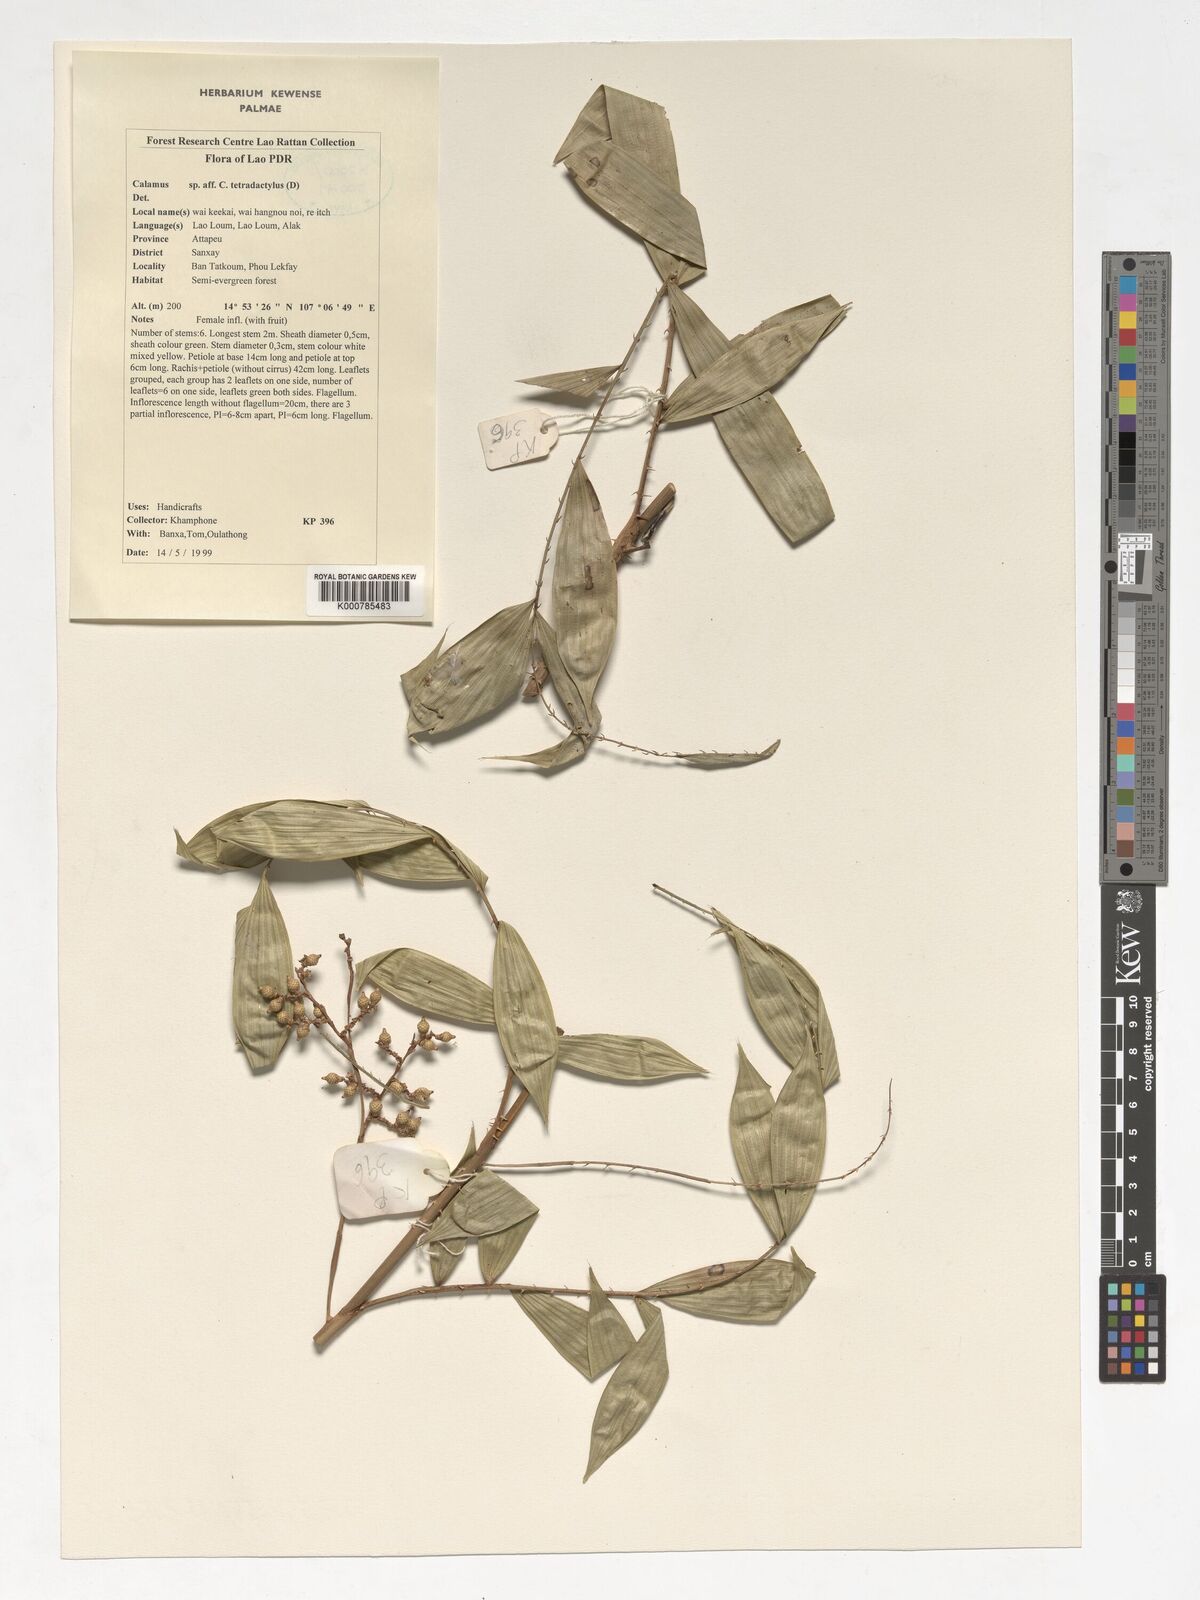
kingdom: Plantae
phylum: Tracheophyta
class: Liliopsida
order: Arecales
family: Arecaceae
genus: Calamus
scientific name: Calamus bimanifer
